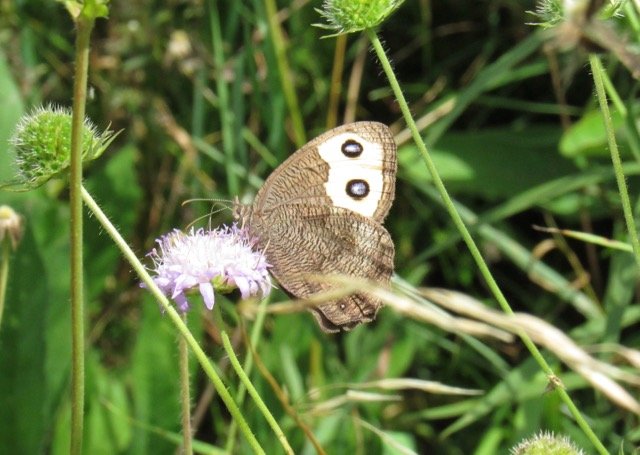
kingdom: Animalia
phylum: Arthropoda
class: Insecta
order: Lepidoptera
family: Nymphalidae
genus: Cercyonis
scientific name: Cercyonis pegala
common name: Common Wood-Nymph
